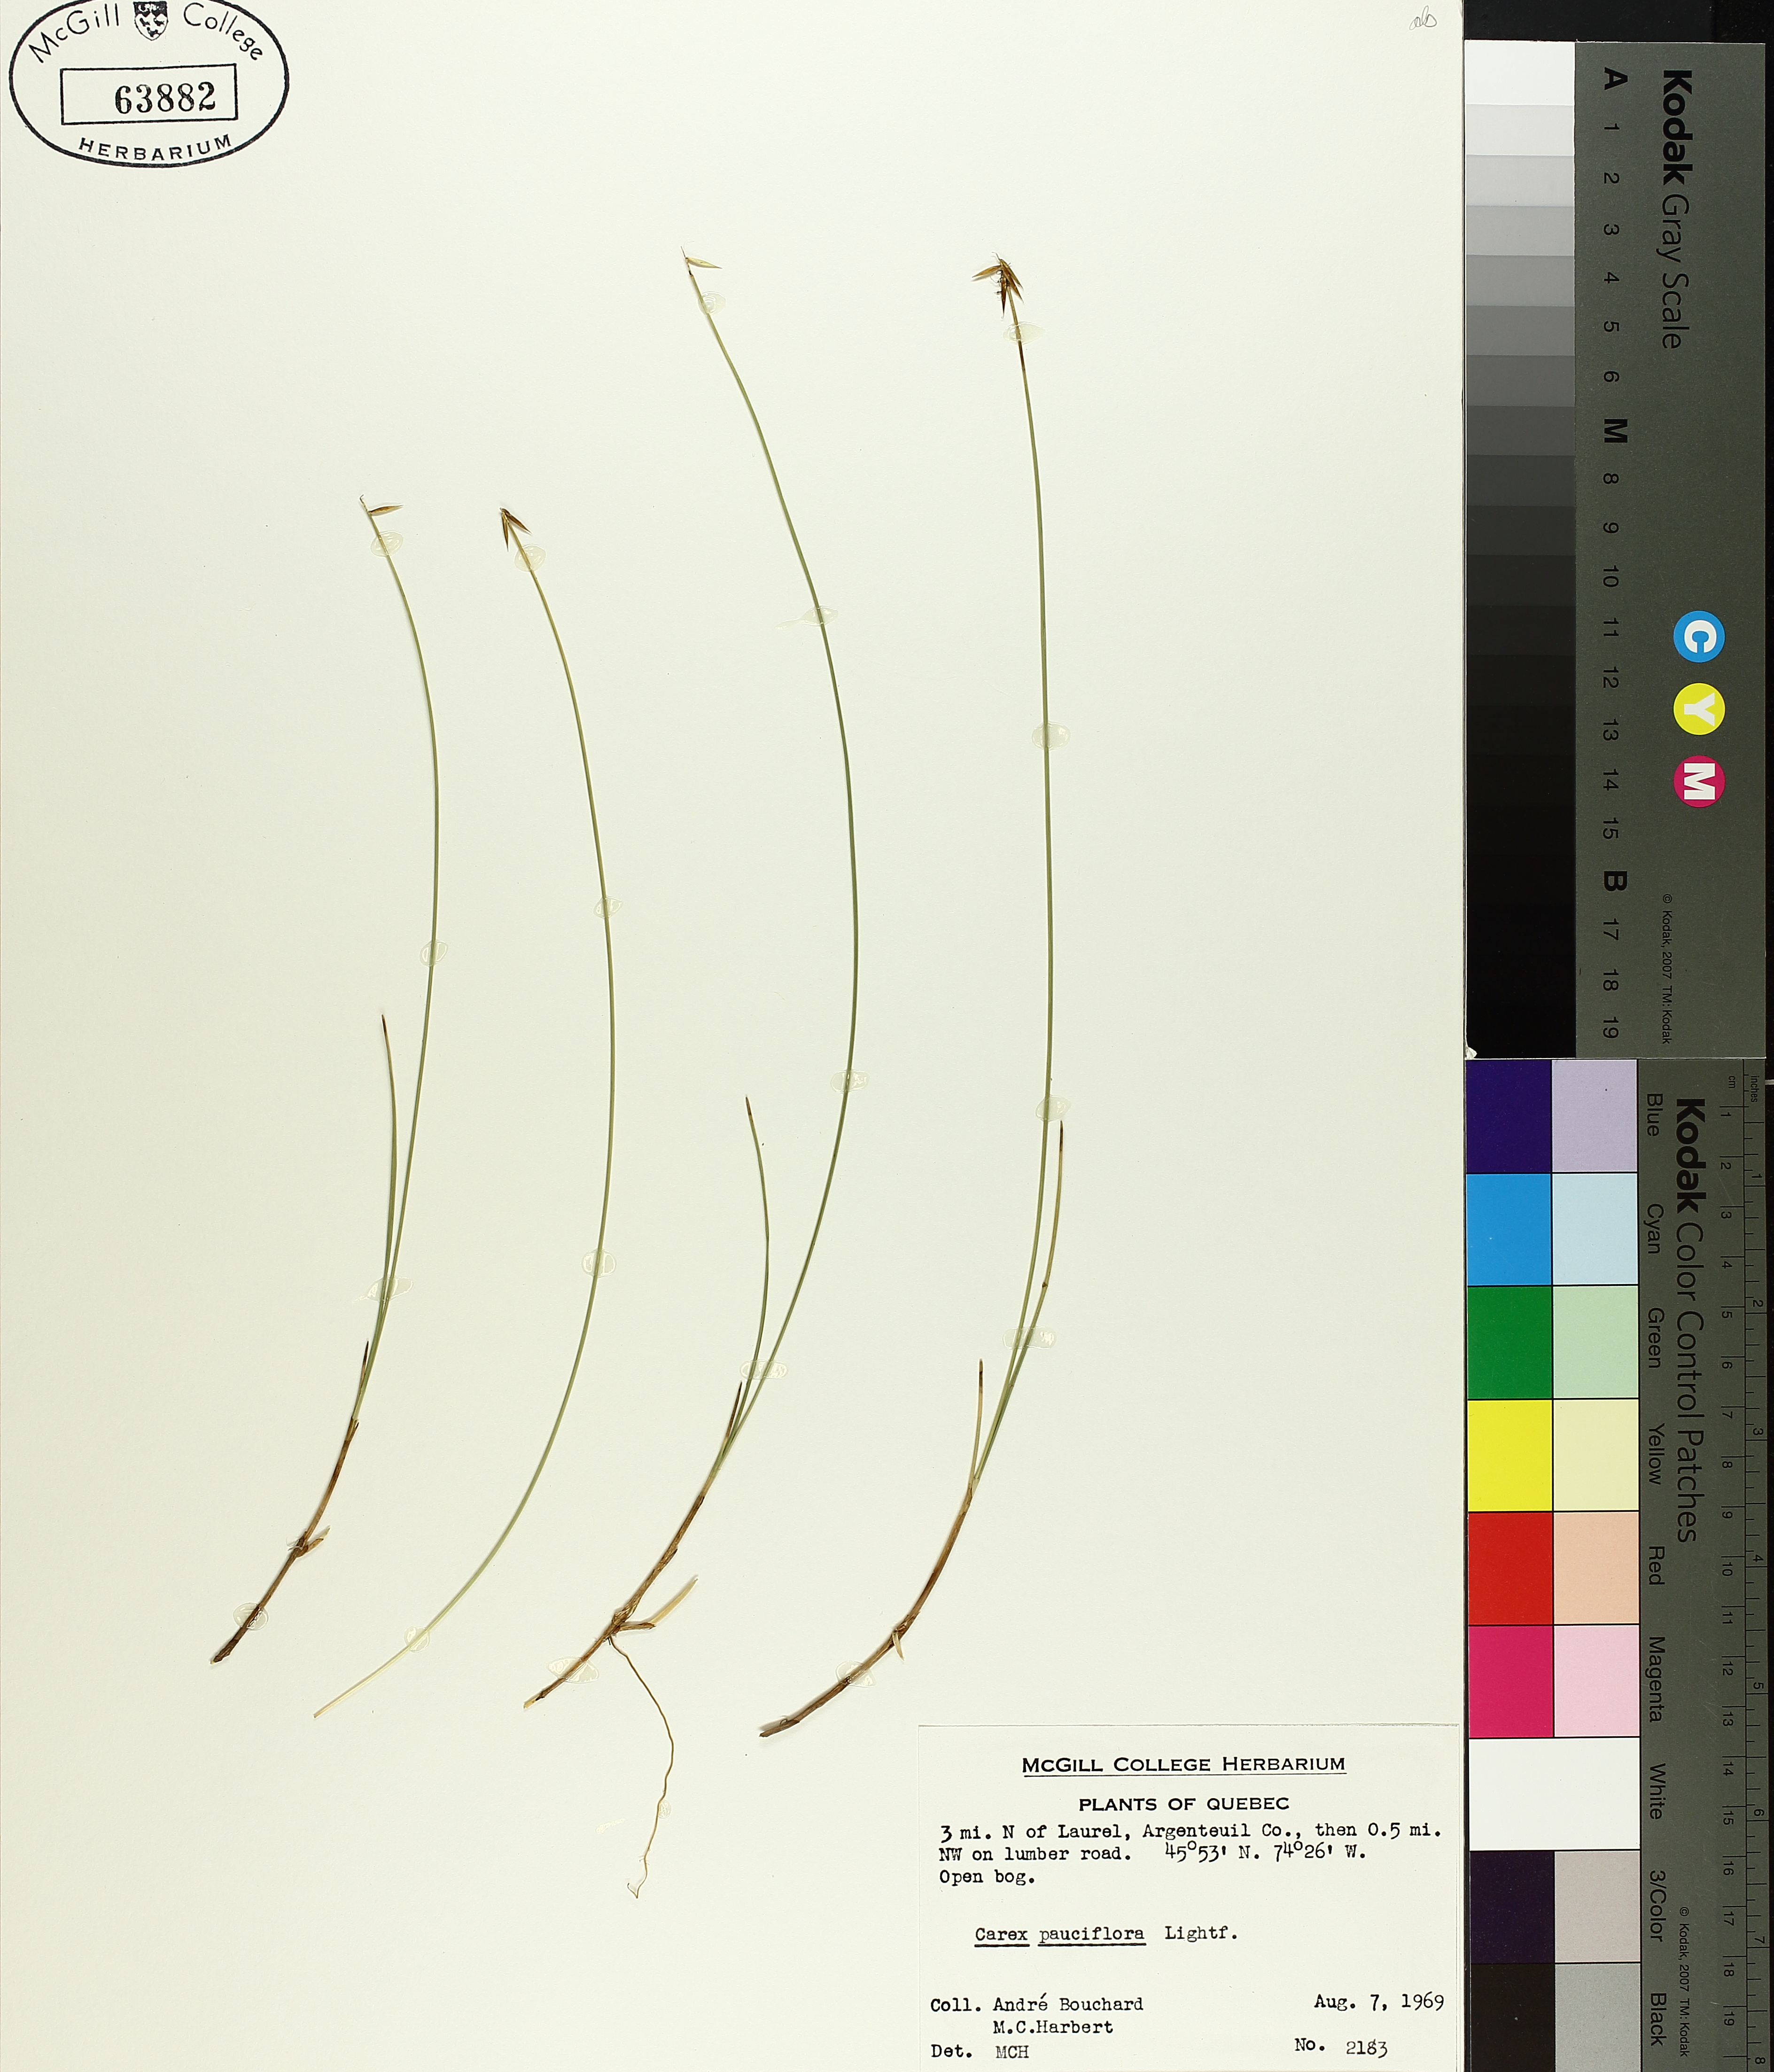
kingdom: Plantae
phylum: Tracheophyta
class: Liliopsida
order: Poales
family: Cyperaceae
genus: Carex
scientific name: Carex pauciflora
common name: Few-flowered sedge
